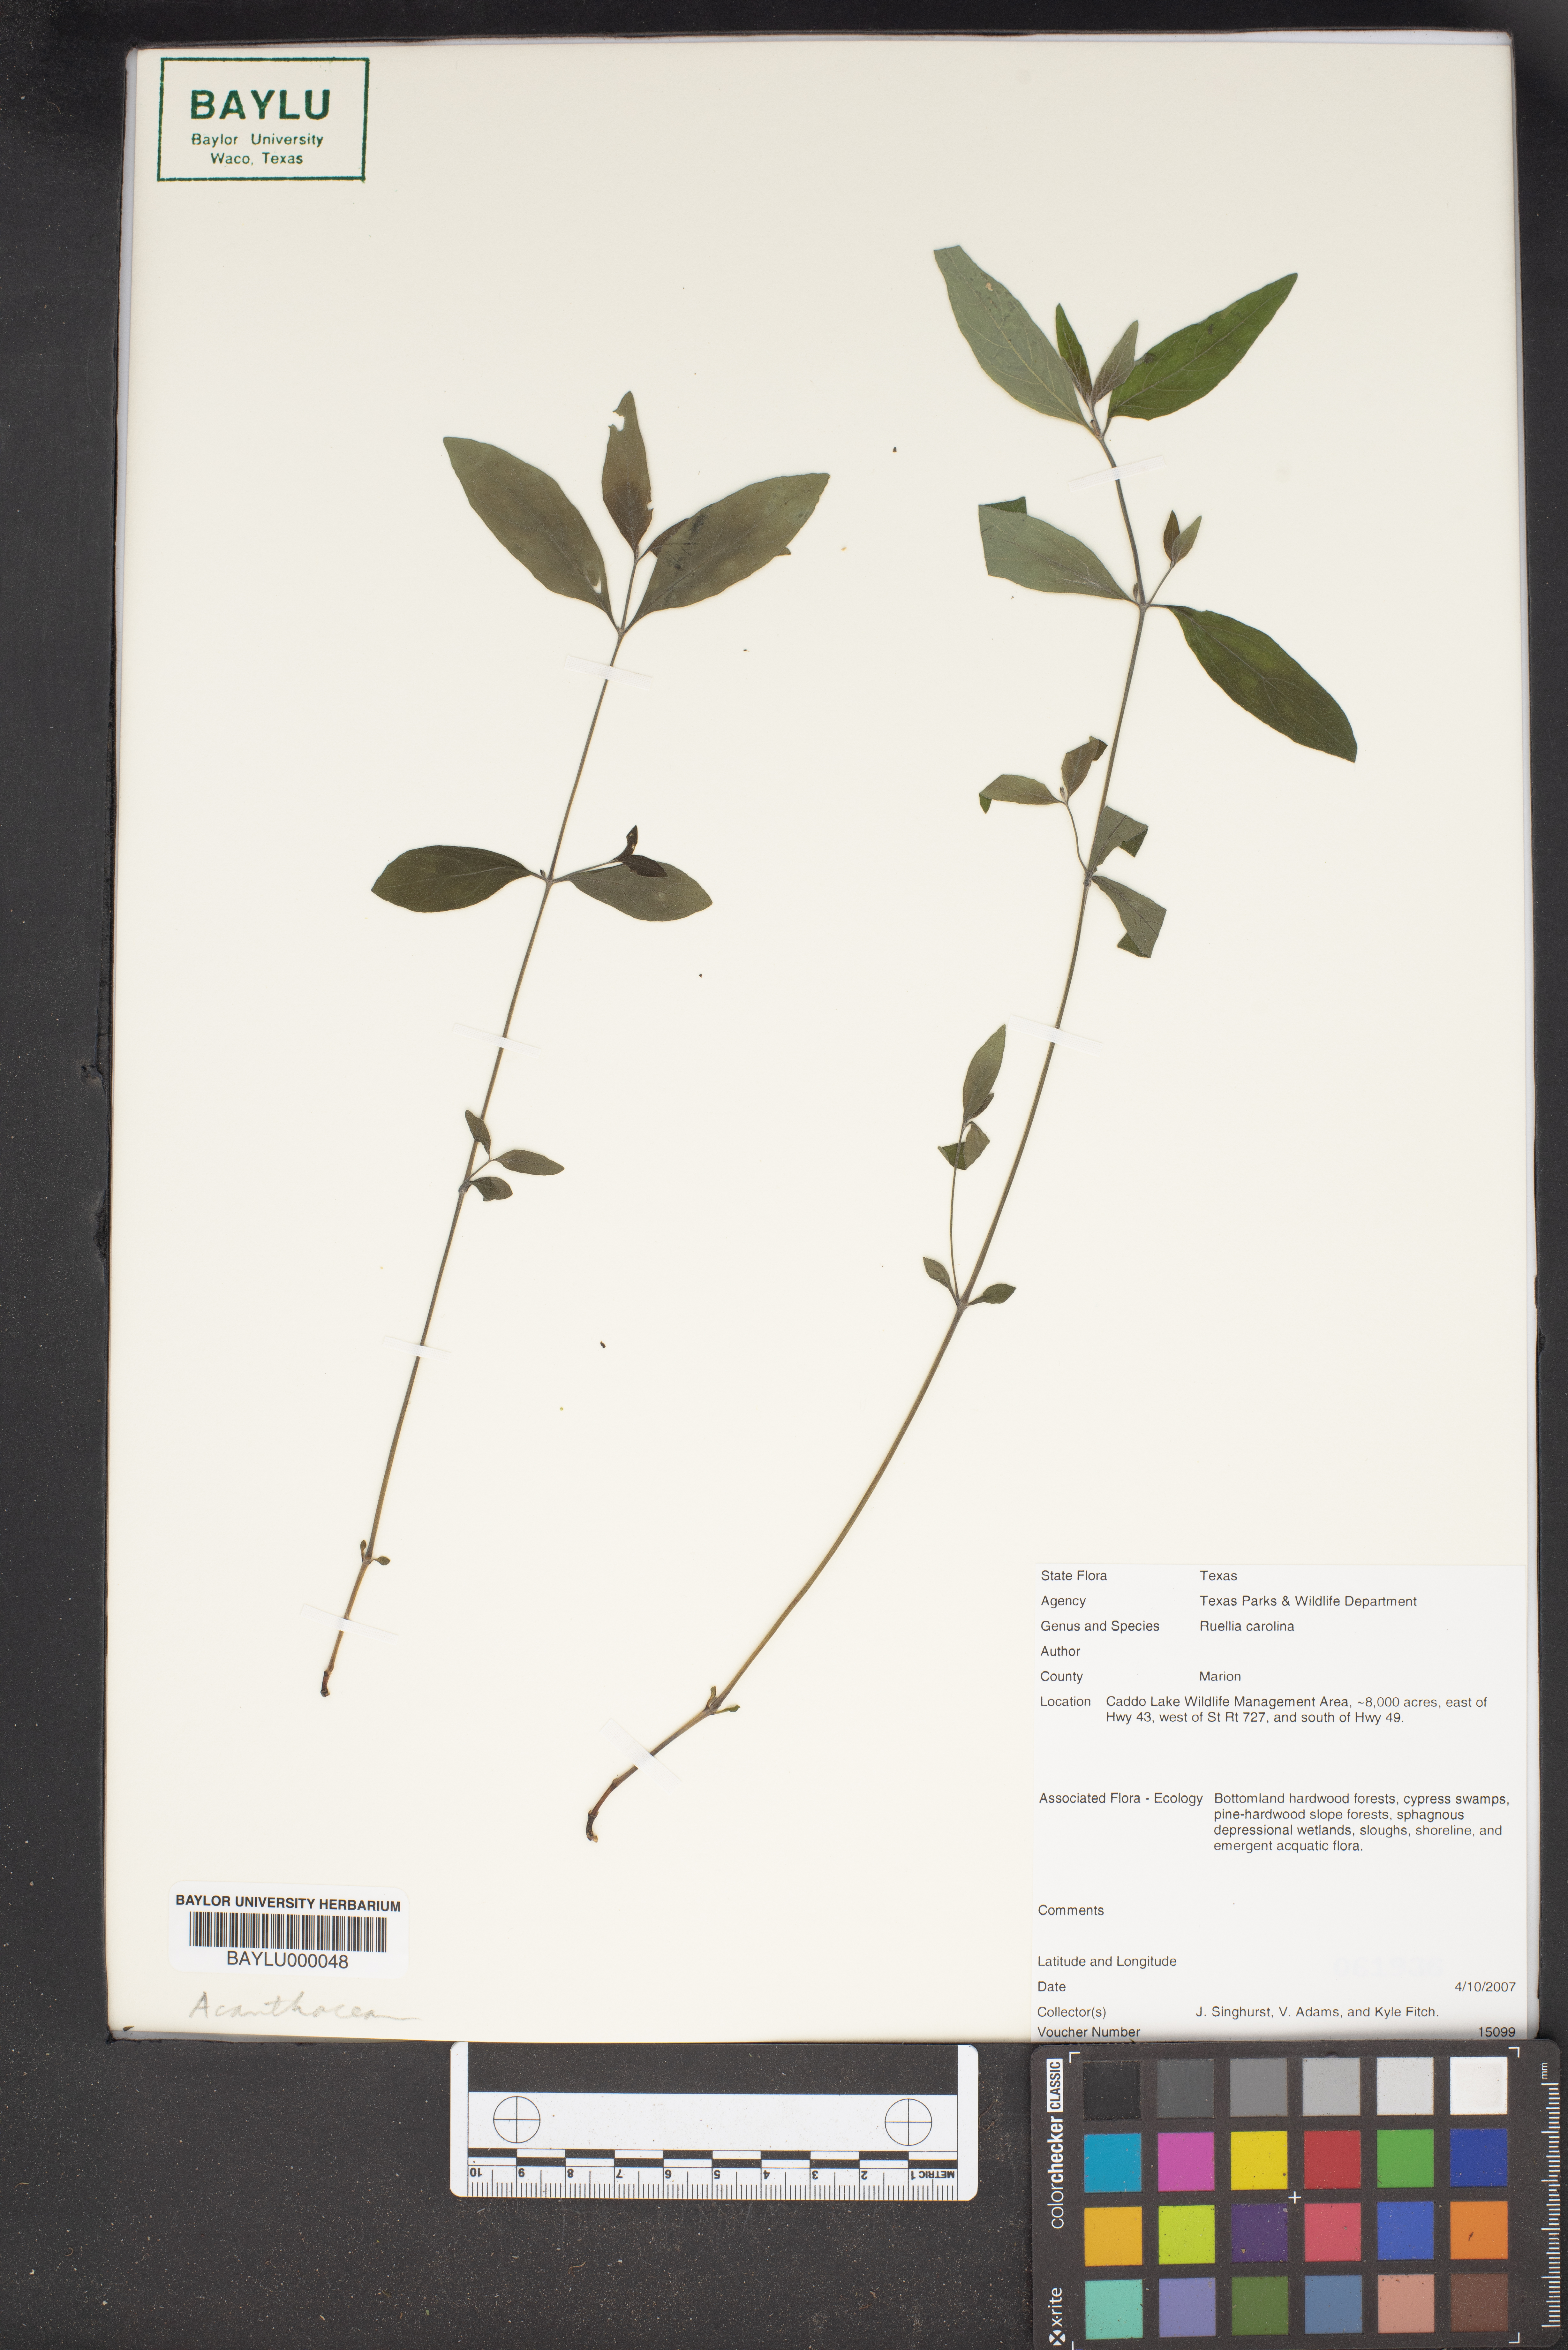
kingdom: Plantae
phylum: Tracheophyta
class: Magnoliopsida
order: Lamiales
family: Acanthaceae
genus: Ruellia
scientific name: Ruellia caroliniensis
